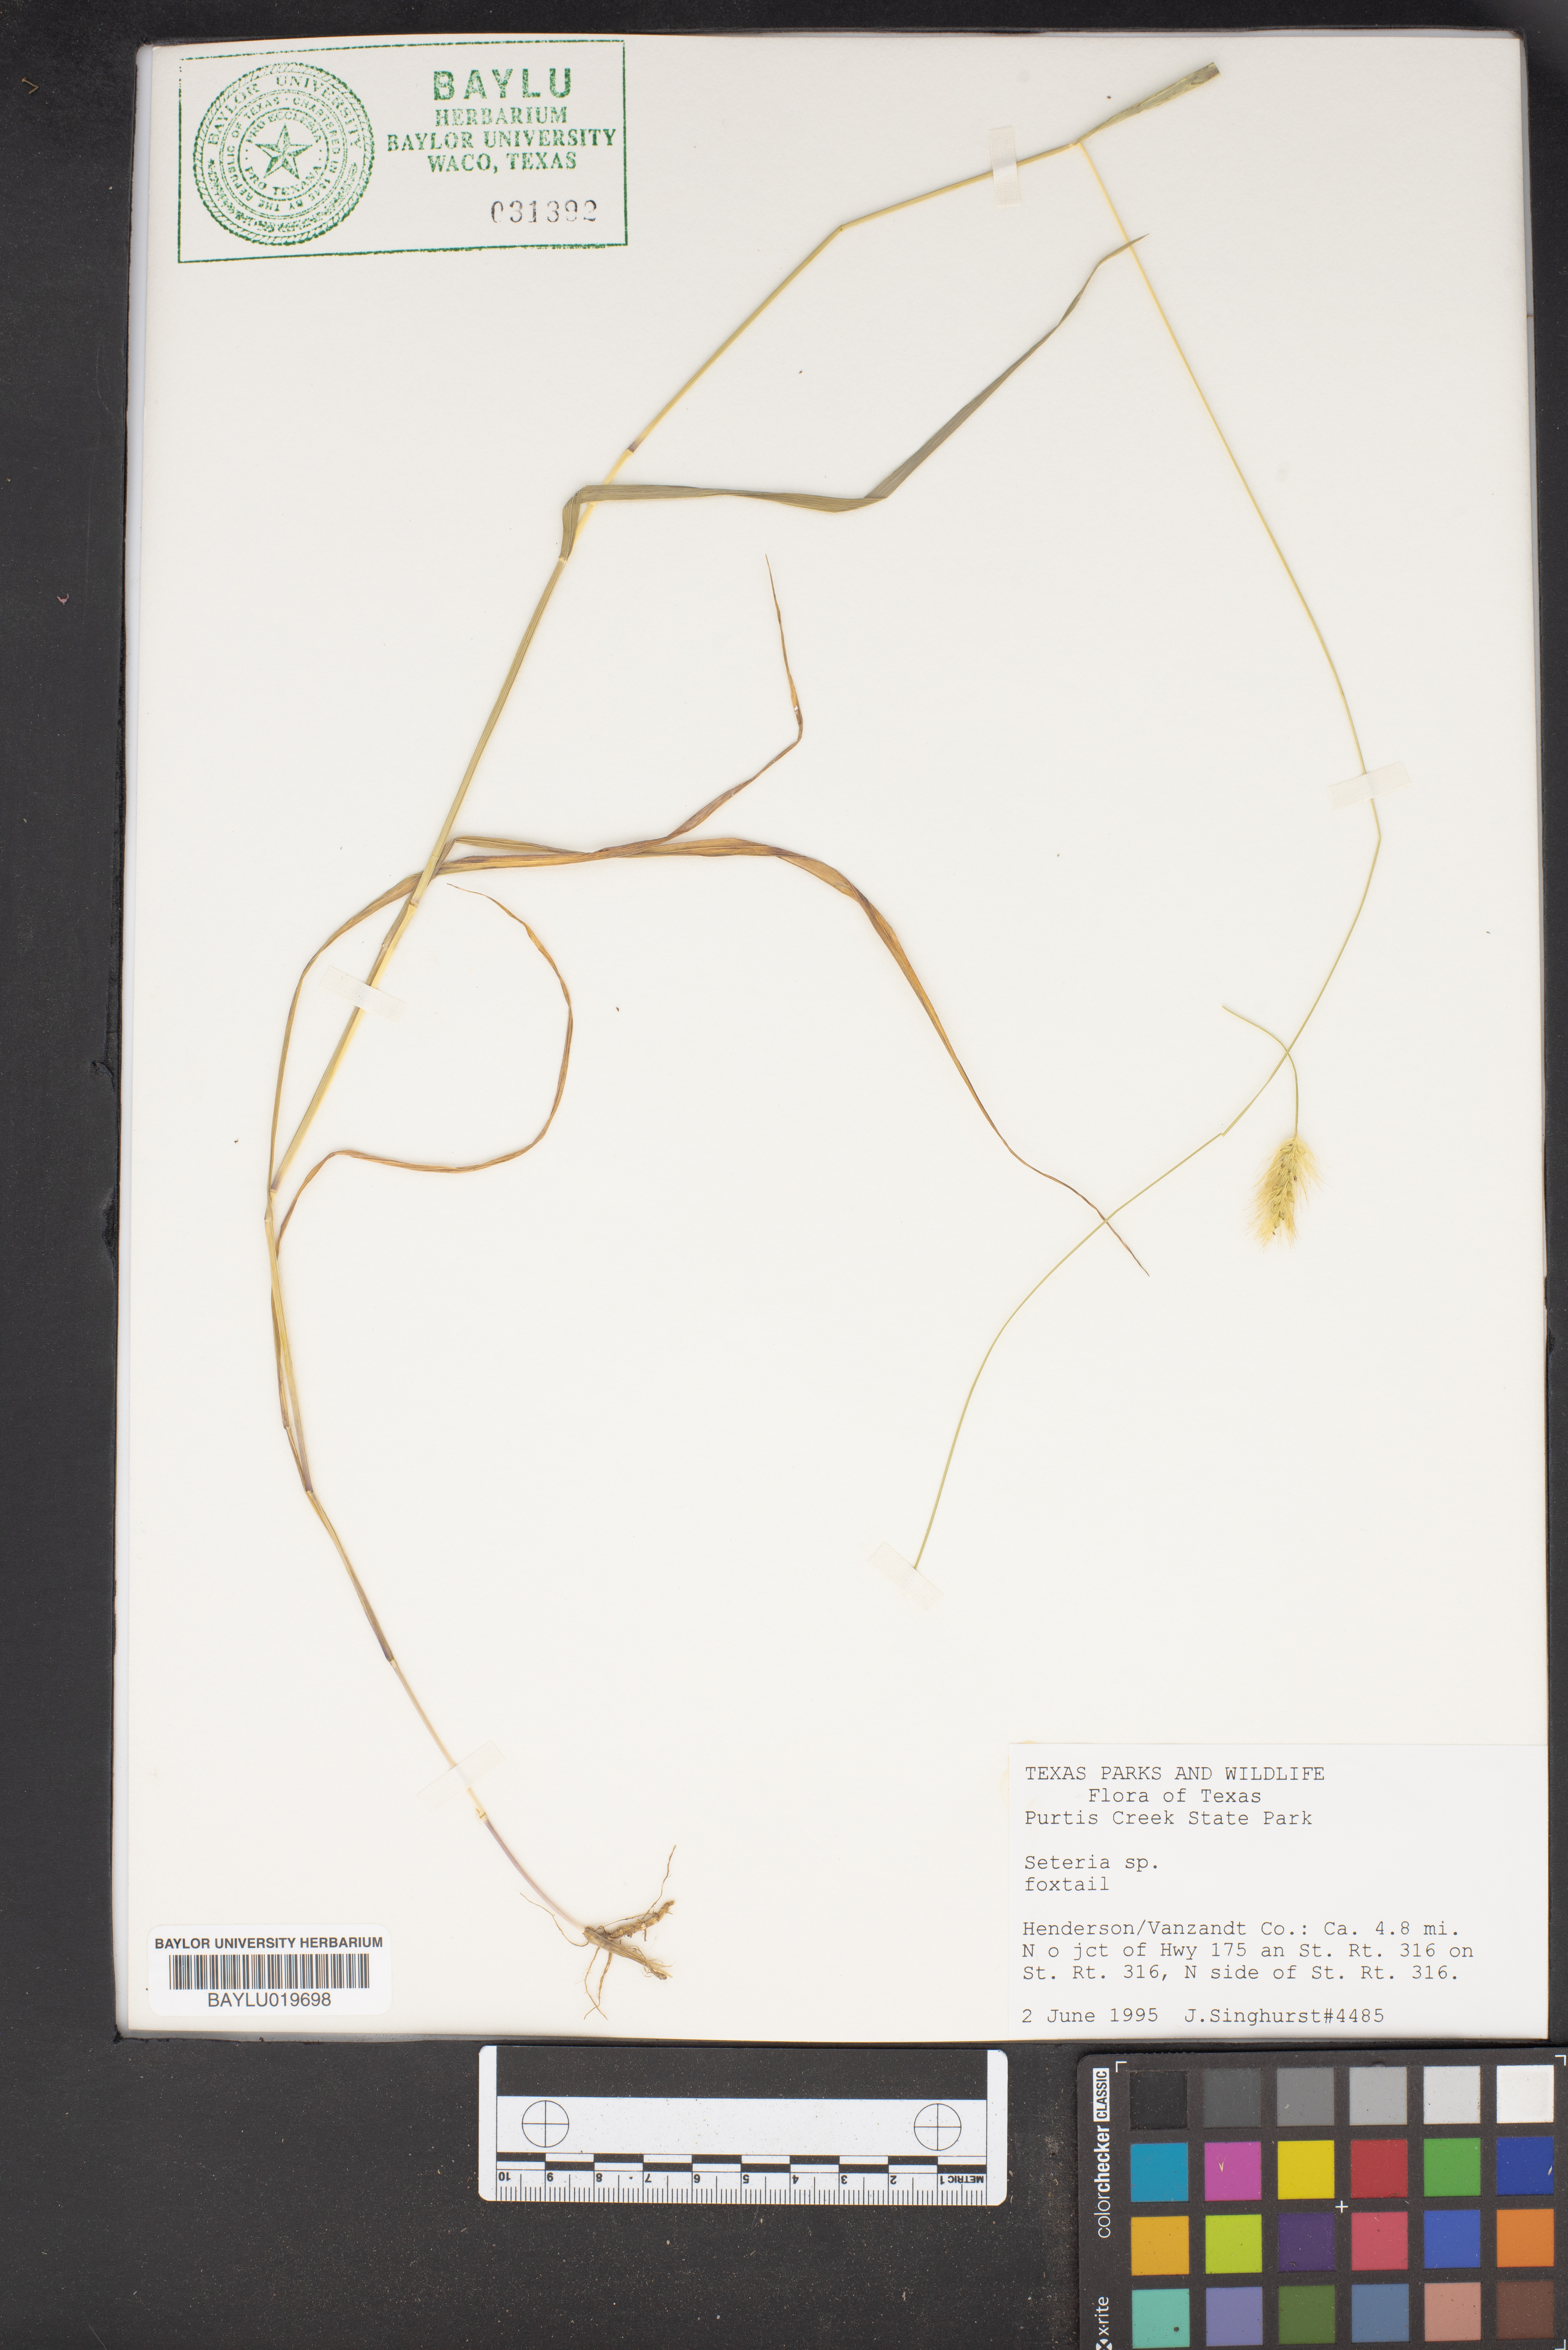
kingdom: Plantae
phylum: Tracheophyta
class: Liliopsida
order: Poales
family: Poaceae
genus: Setaria
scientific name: Setaria
